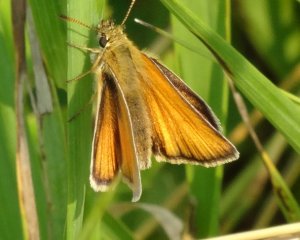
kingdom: Animalia
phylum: Arthropoda
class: Insecta
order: Lepidoptera
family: Hesperiidae
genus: Thymelicus
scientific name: Thymelicus lineola
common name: European Skipper
